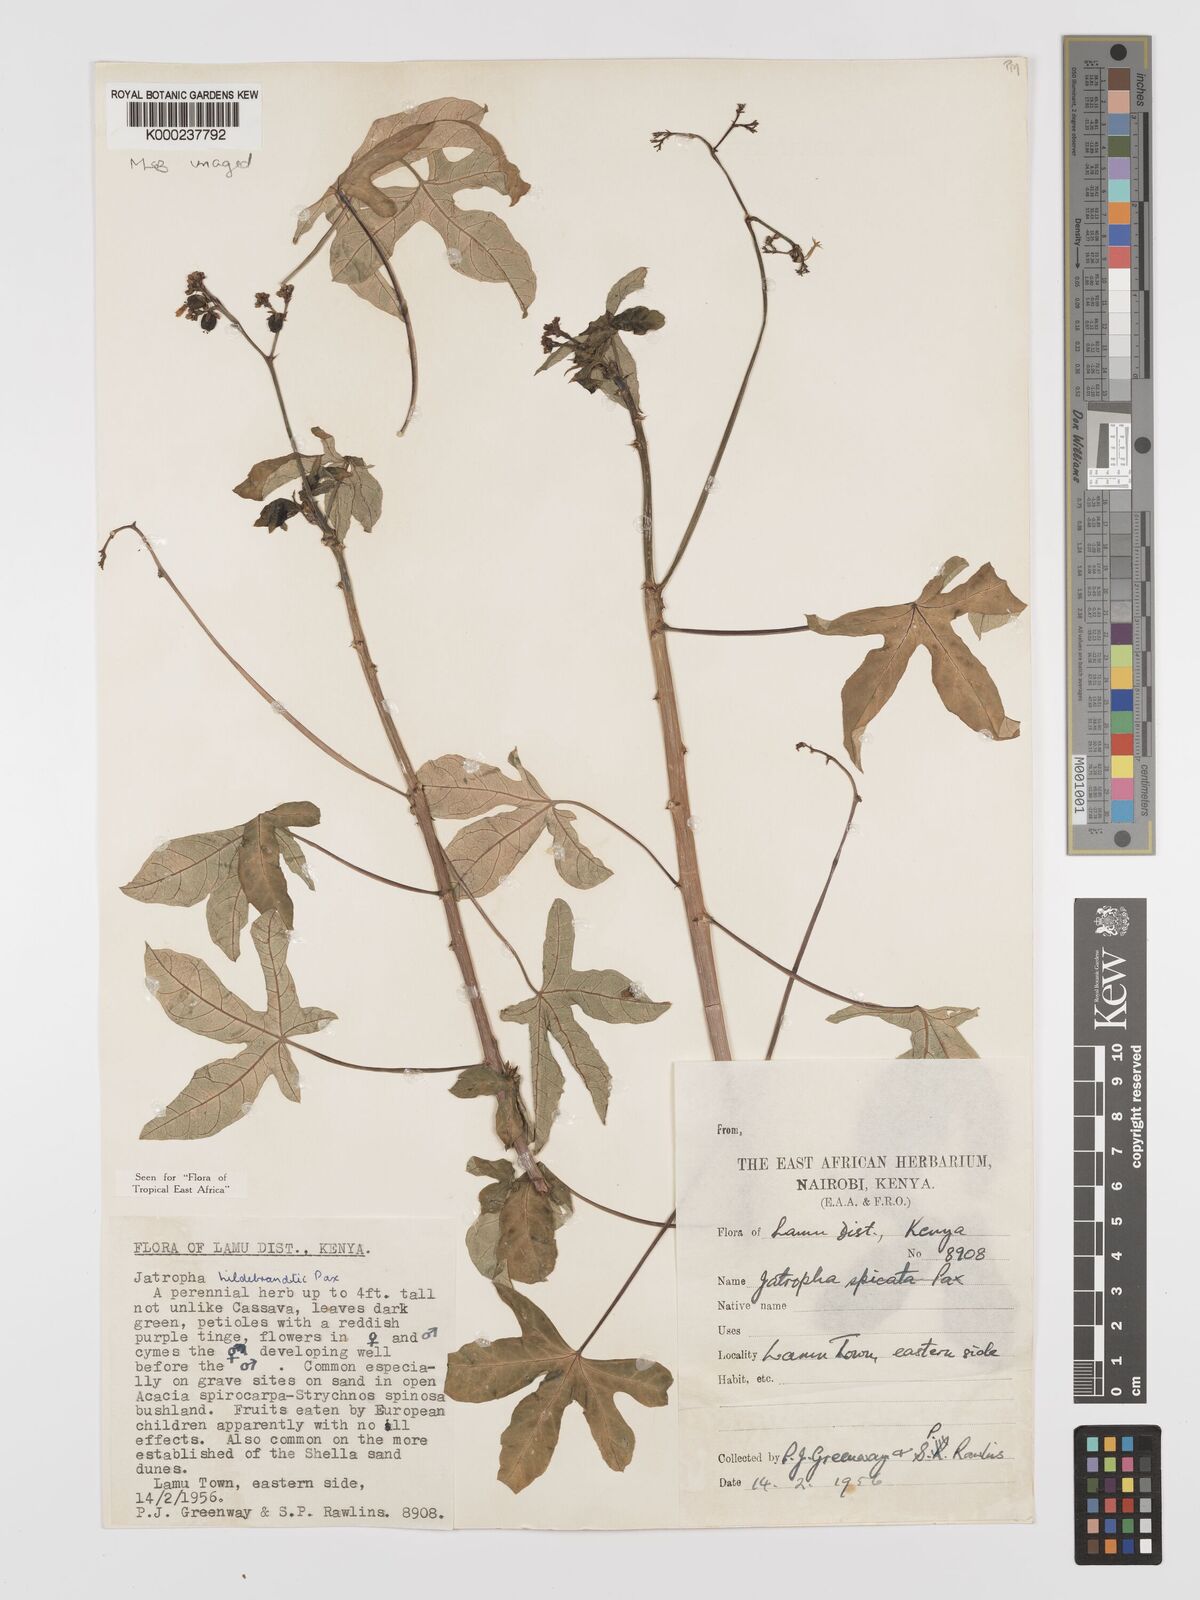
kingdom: Plantae
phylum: Tracheophyta
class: Magnoliopsida
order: Malpighiales
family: Euphorbiaceae
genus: Jatropha
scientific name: Jatropha hildebrandtii
